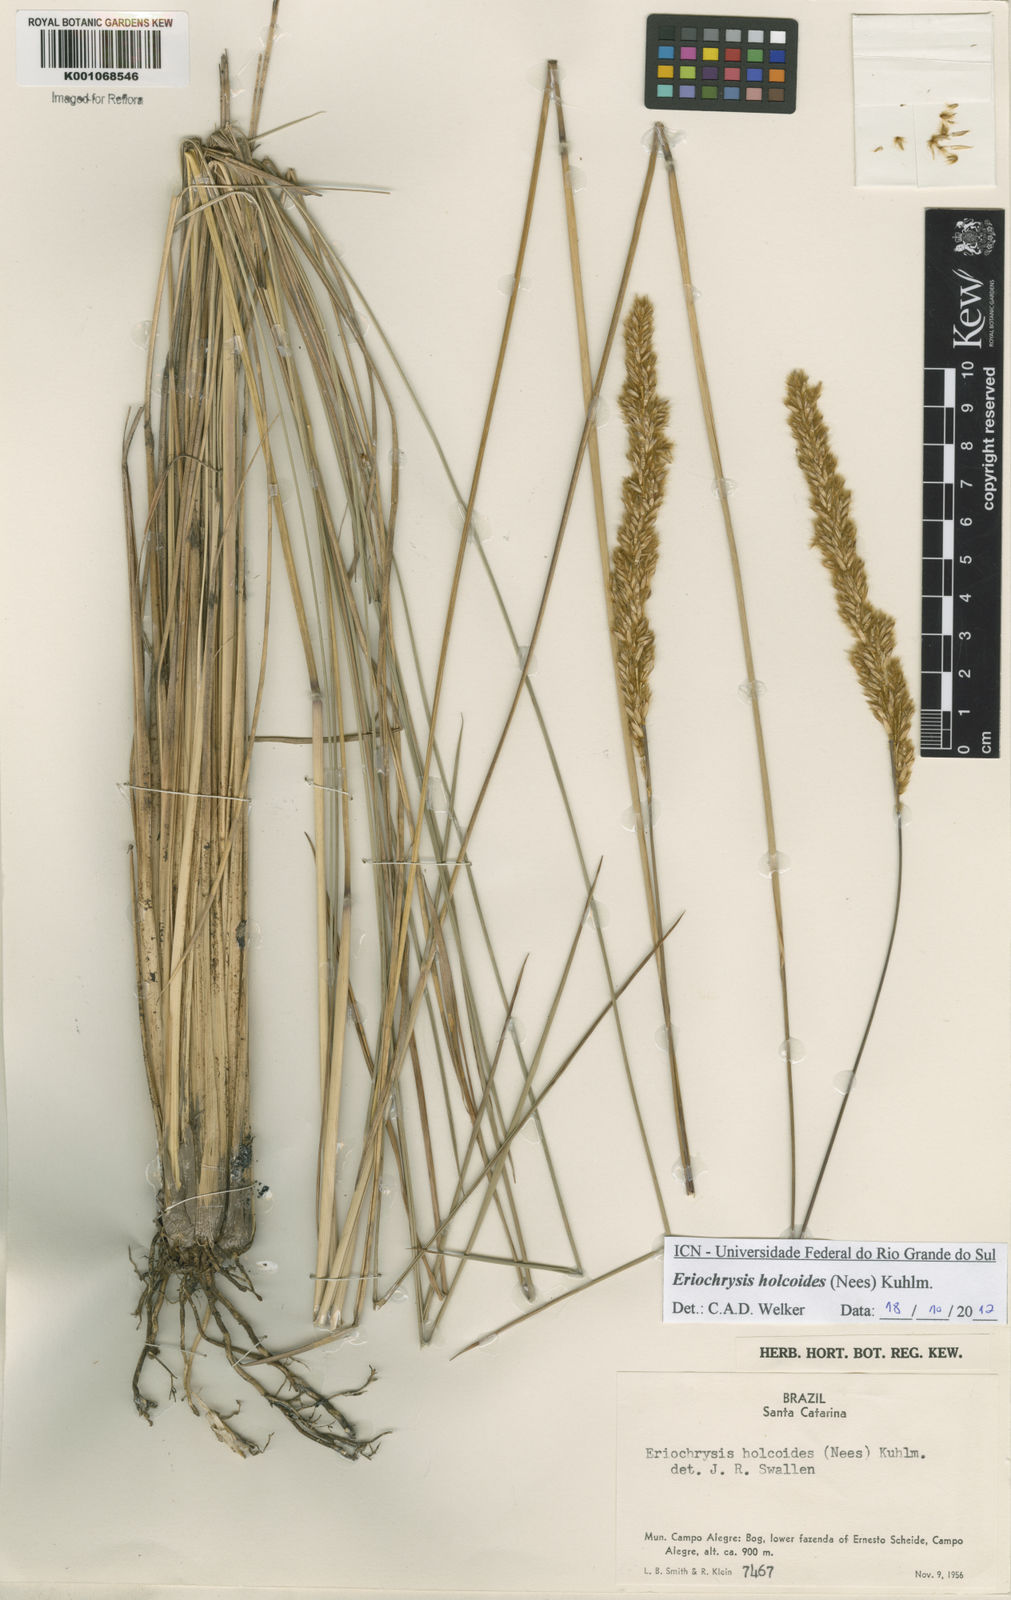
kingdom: Plantae
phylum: Tracheophyta
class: Liliopsida
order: Poales
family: Poaceae
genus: Eriochrysis
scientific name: Eriochrysis holcoides
